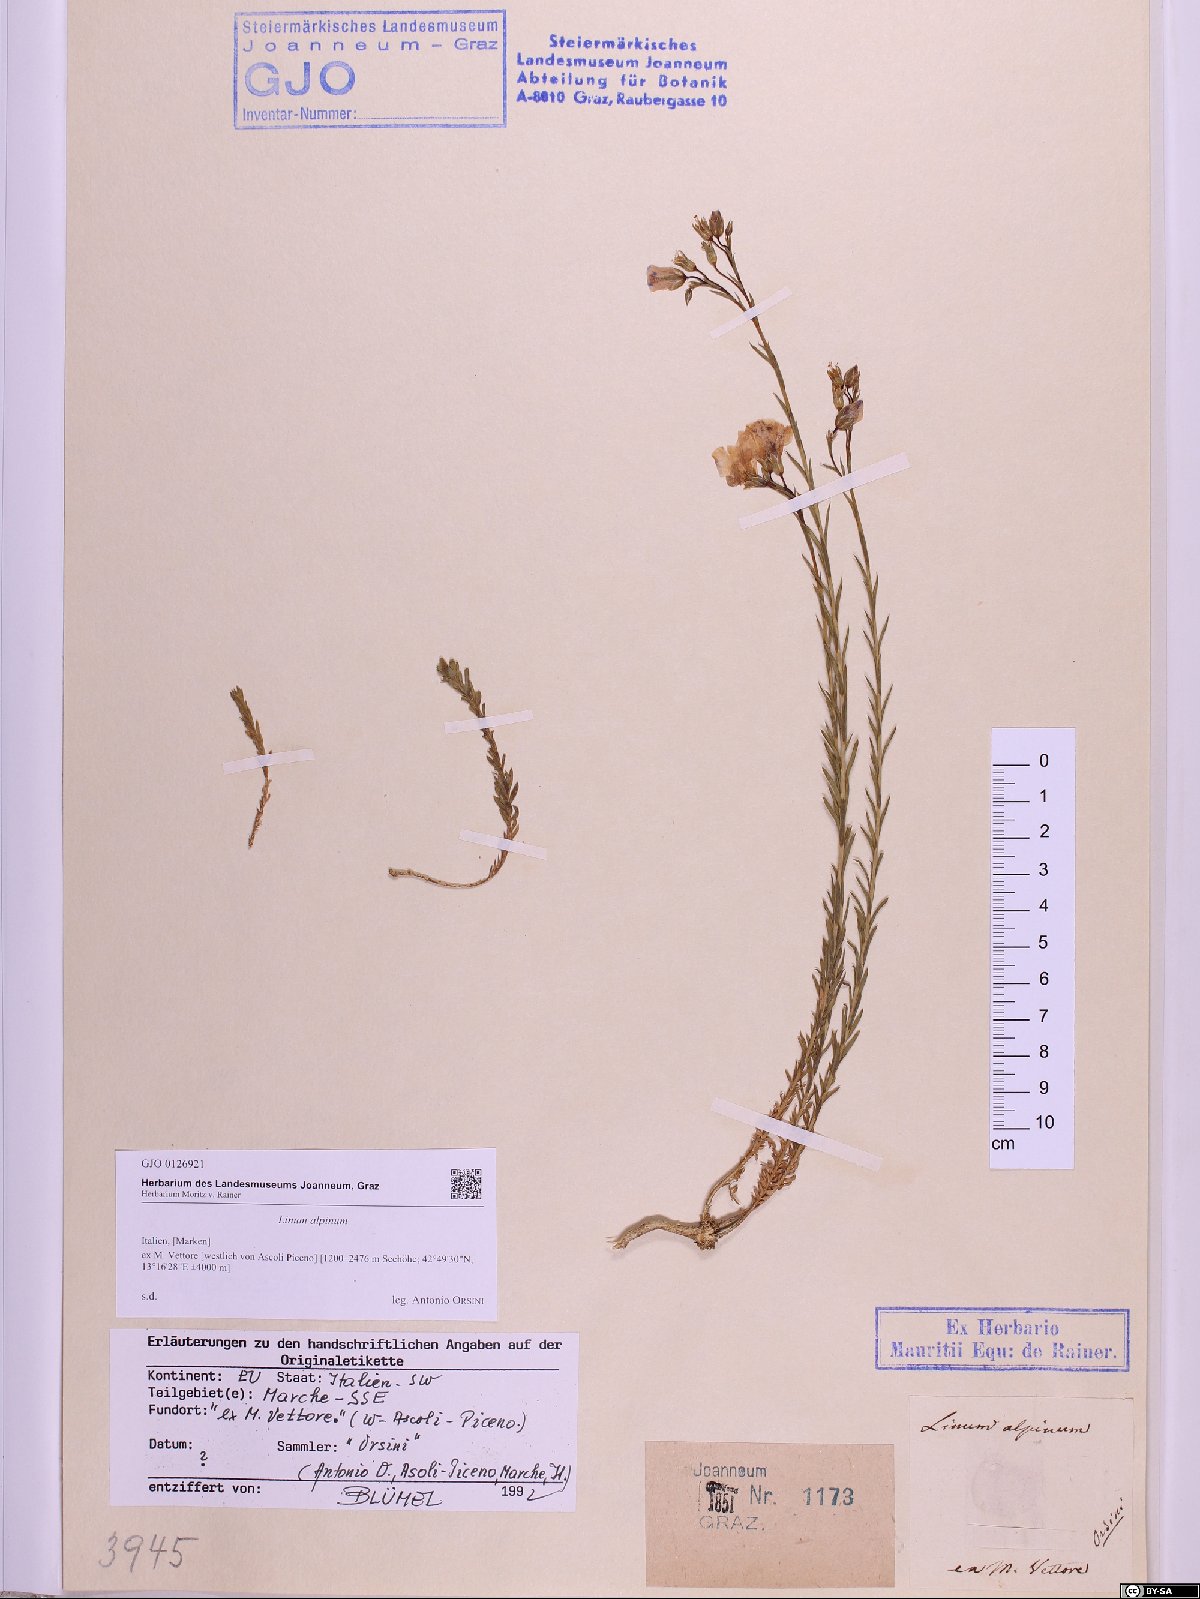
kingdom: Plantae
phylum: Tracheophyta
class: Magnoliopsida
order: Malpighiales
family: Linaceae
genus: Linum
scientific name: Linum alpinum
